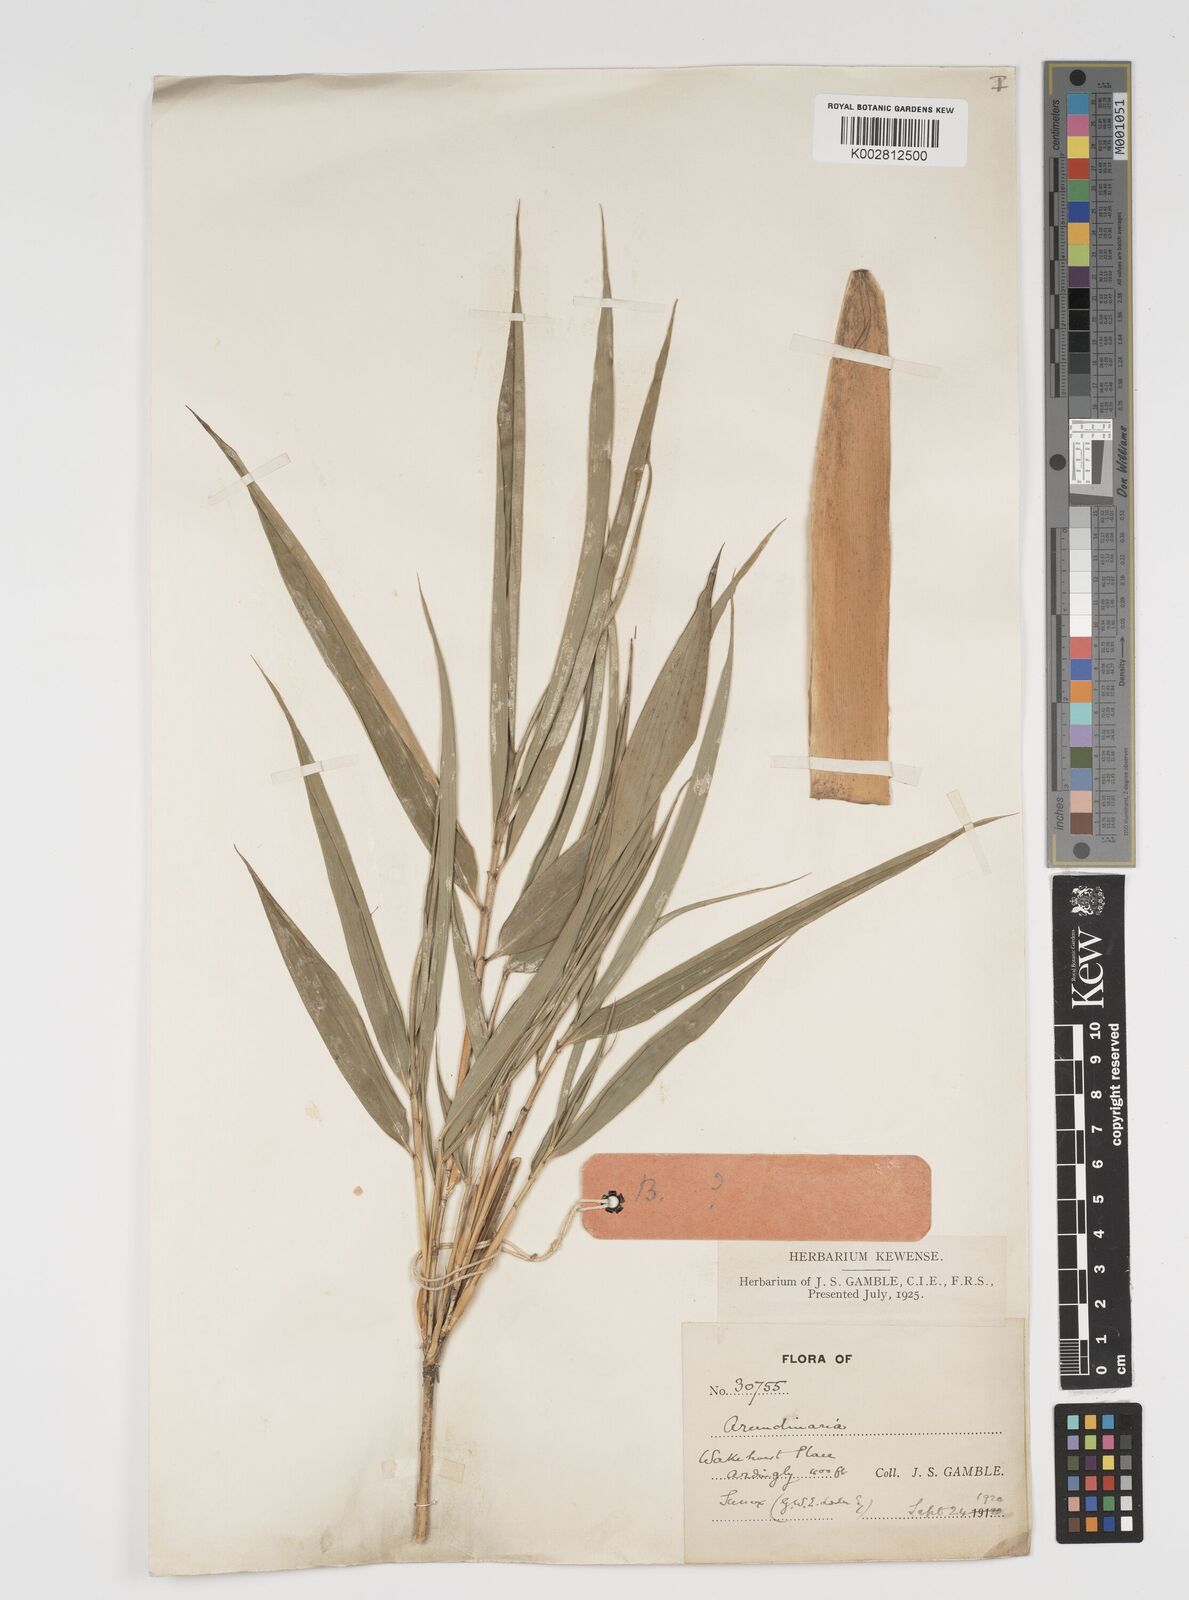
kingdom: Plantae
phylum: Tracheophyta
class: Liliopsida
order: Poales
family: Poaceae
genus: Arundinaria
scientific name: Arundinaria
